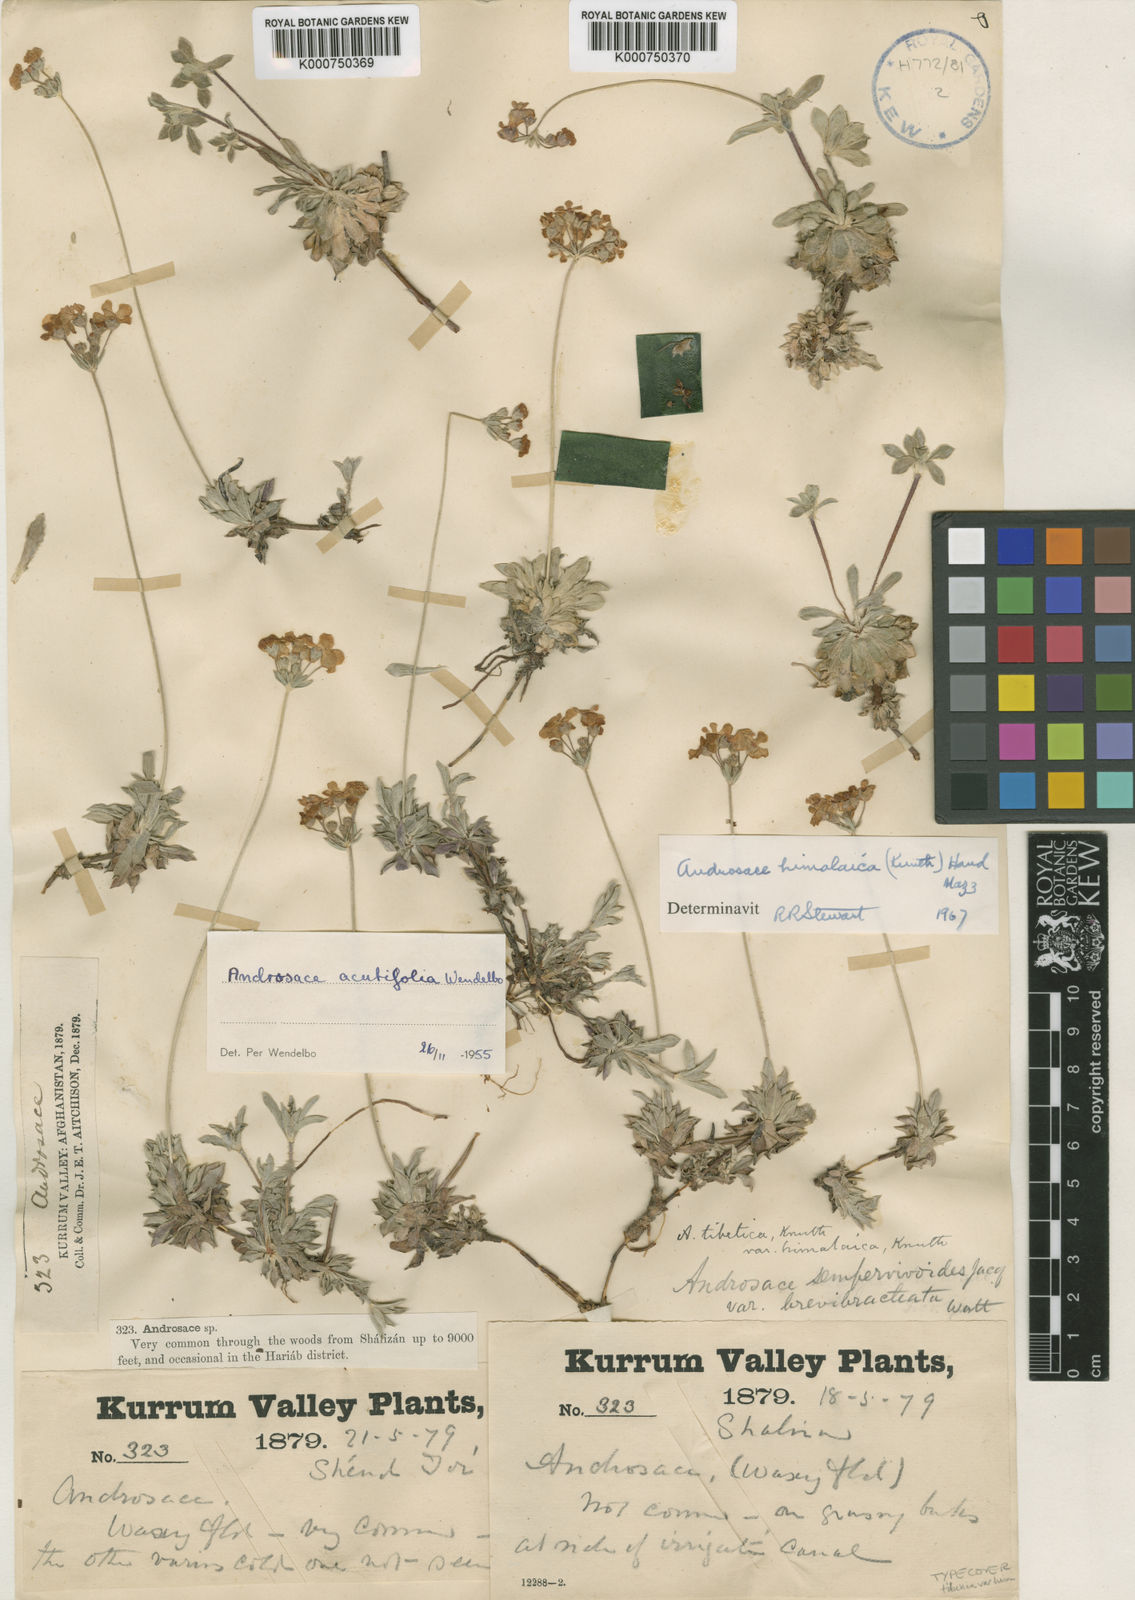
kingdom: Plantae
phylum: Tracheophyta
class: Magnoliopsida
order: Ericales
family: Primulaceae
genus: Androsace
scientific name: Androsace tibetica
